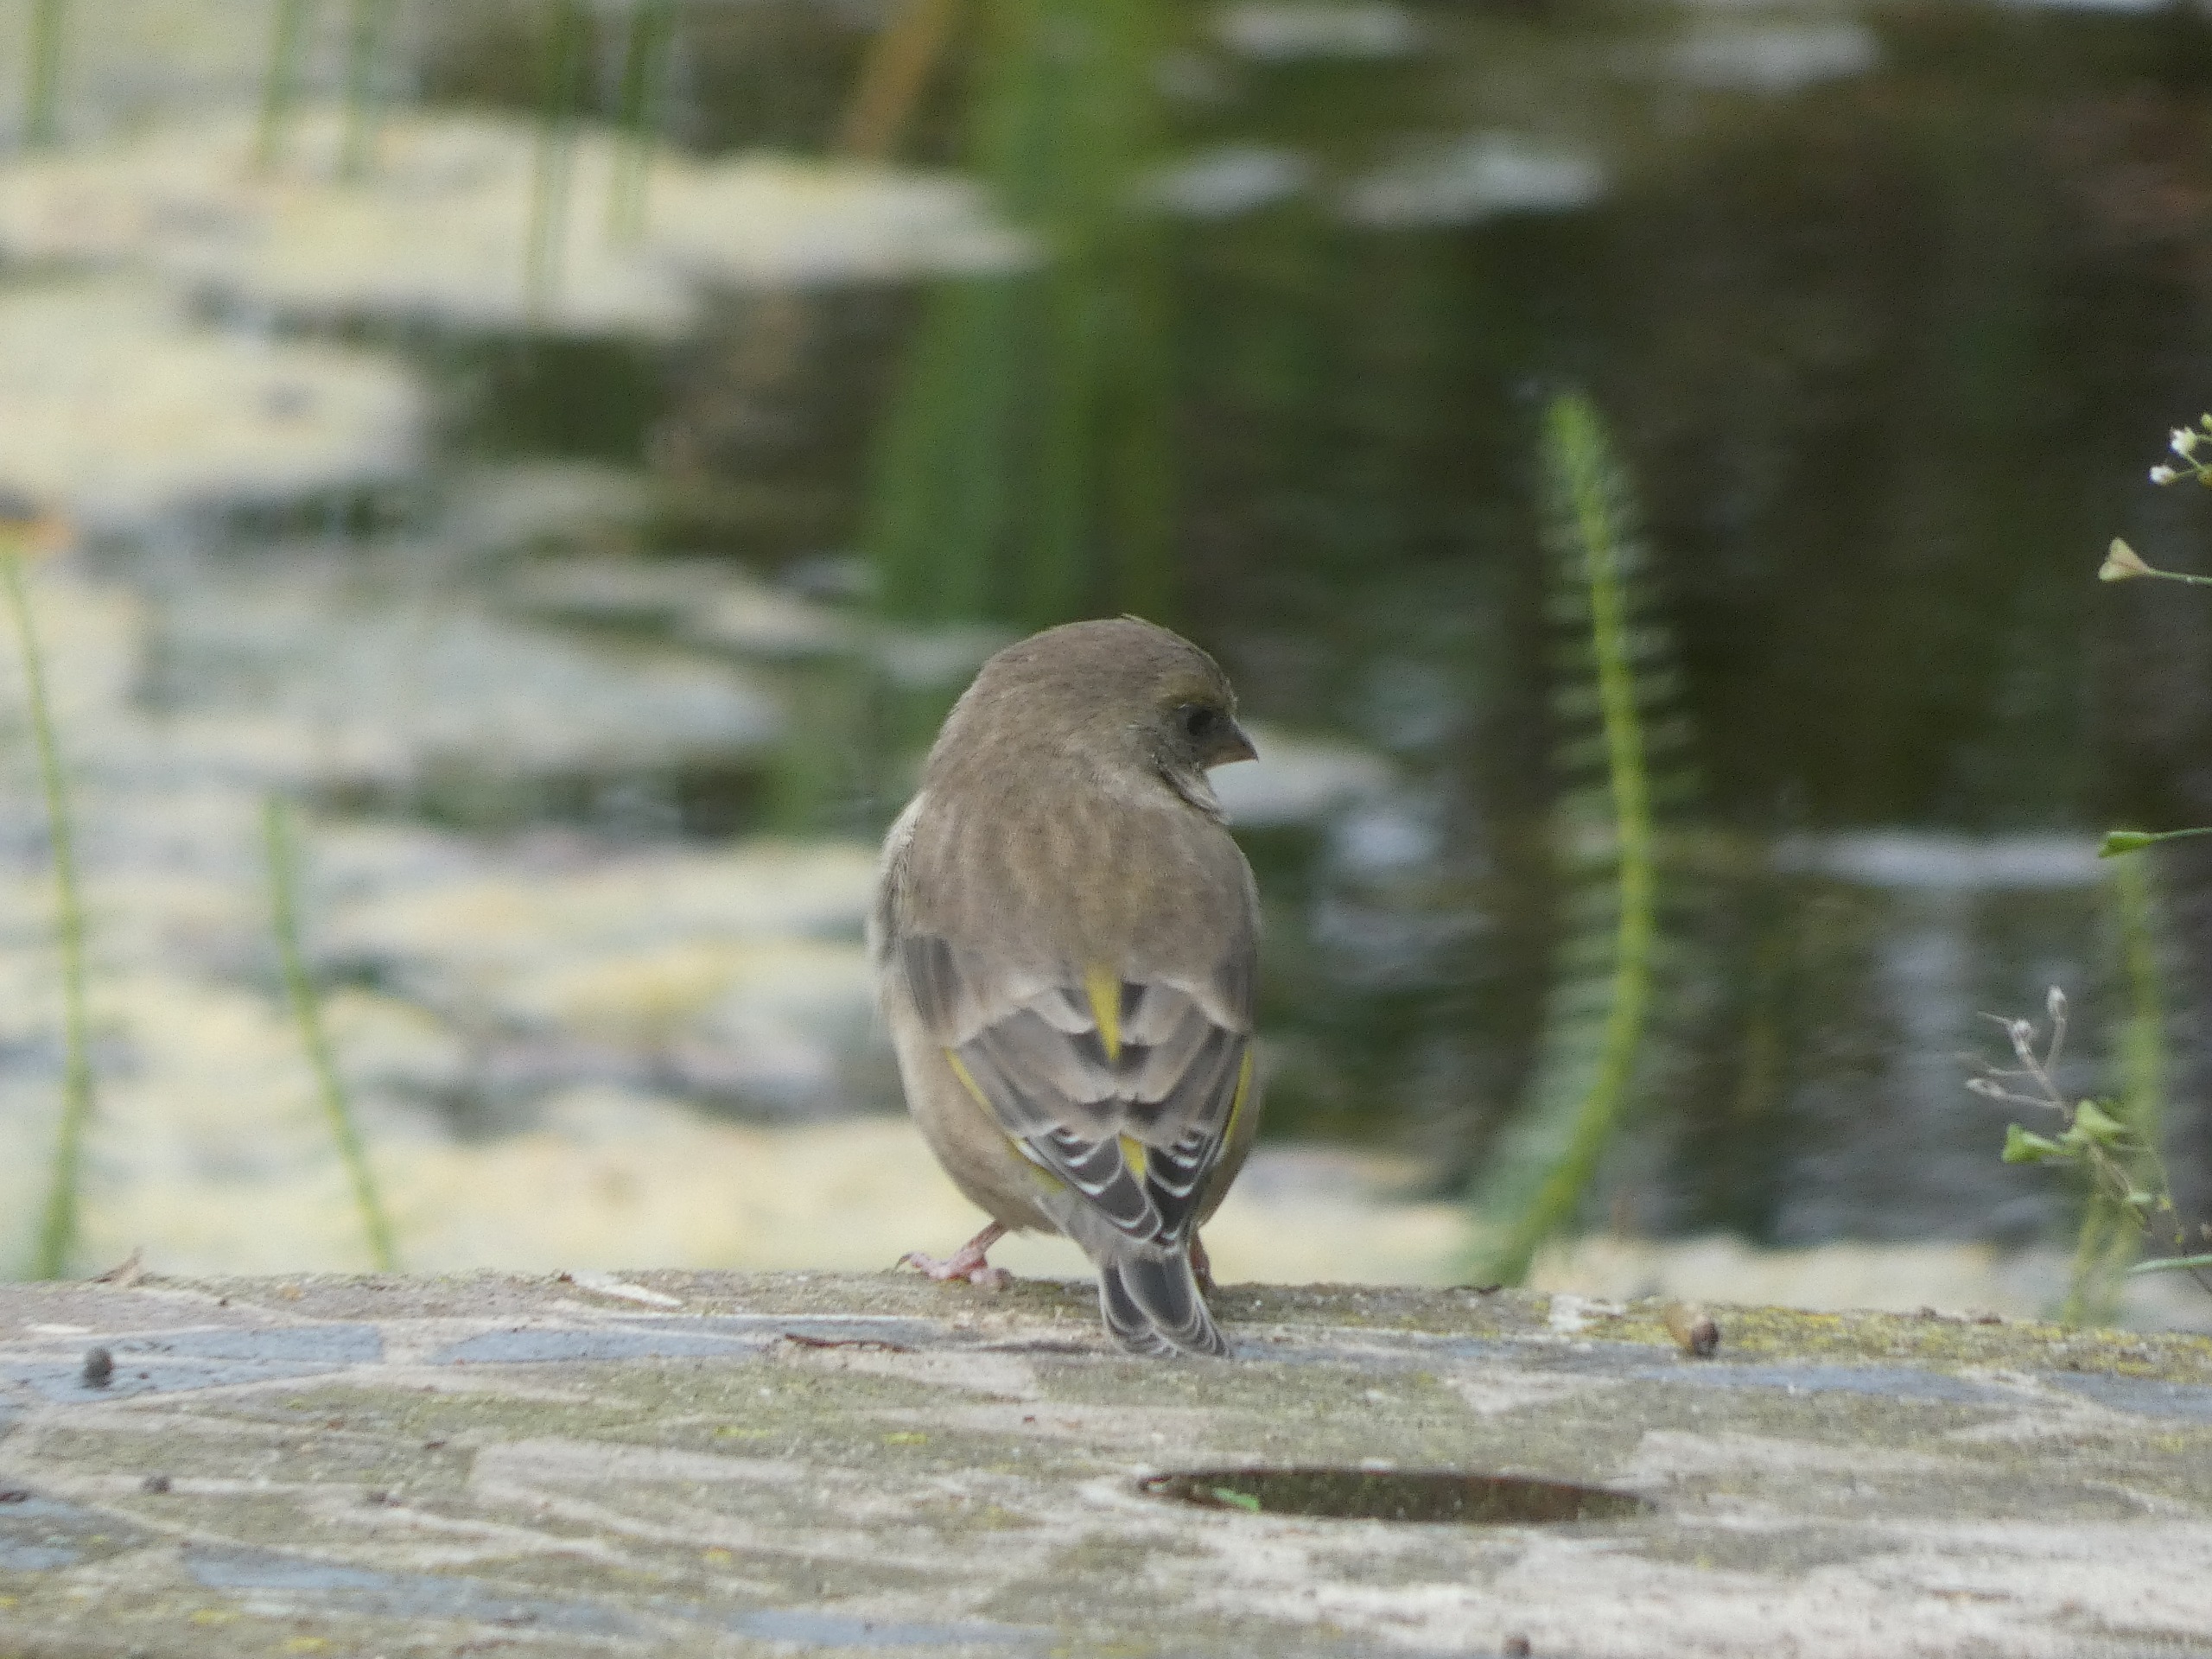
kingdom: Plantae
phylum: Tracheophyta
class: Liliopsida
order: Poales
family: Poaceae
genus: Chloris
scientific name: Chloris chloris
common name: Grønirisk
